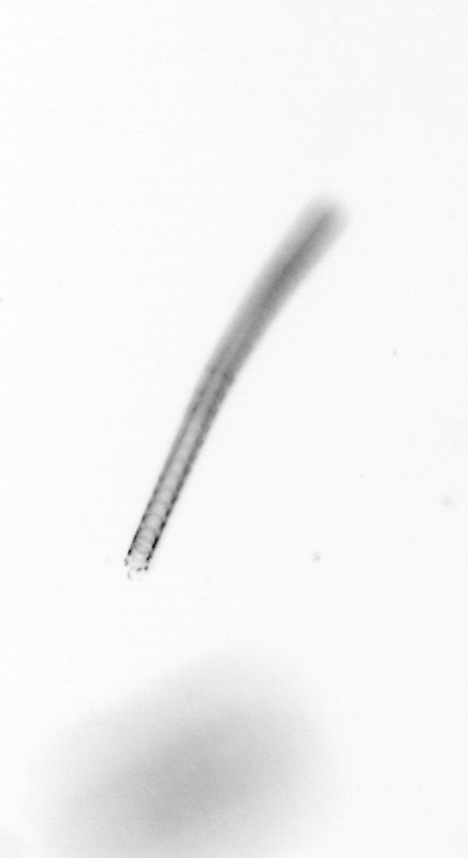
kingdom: Chromista
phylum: Ochrophyta
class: Bacillariophyceae
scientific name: Bacillariophyceae
